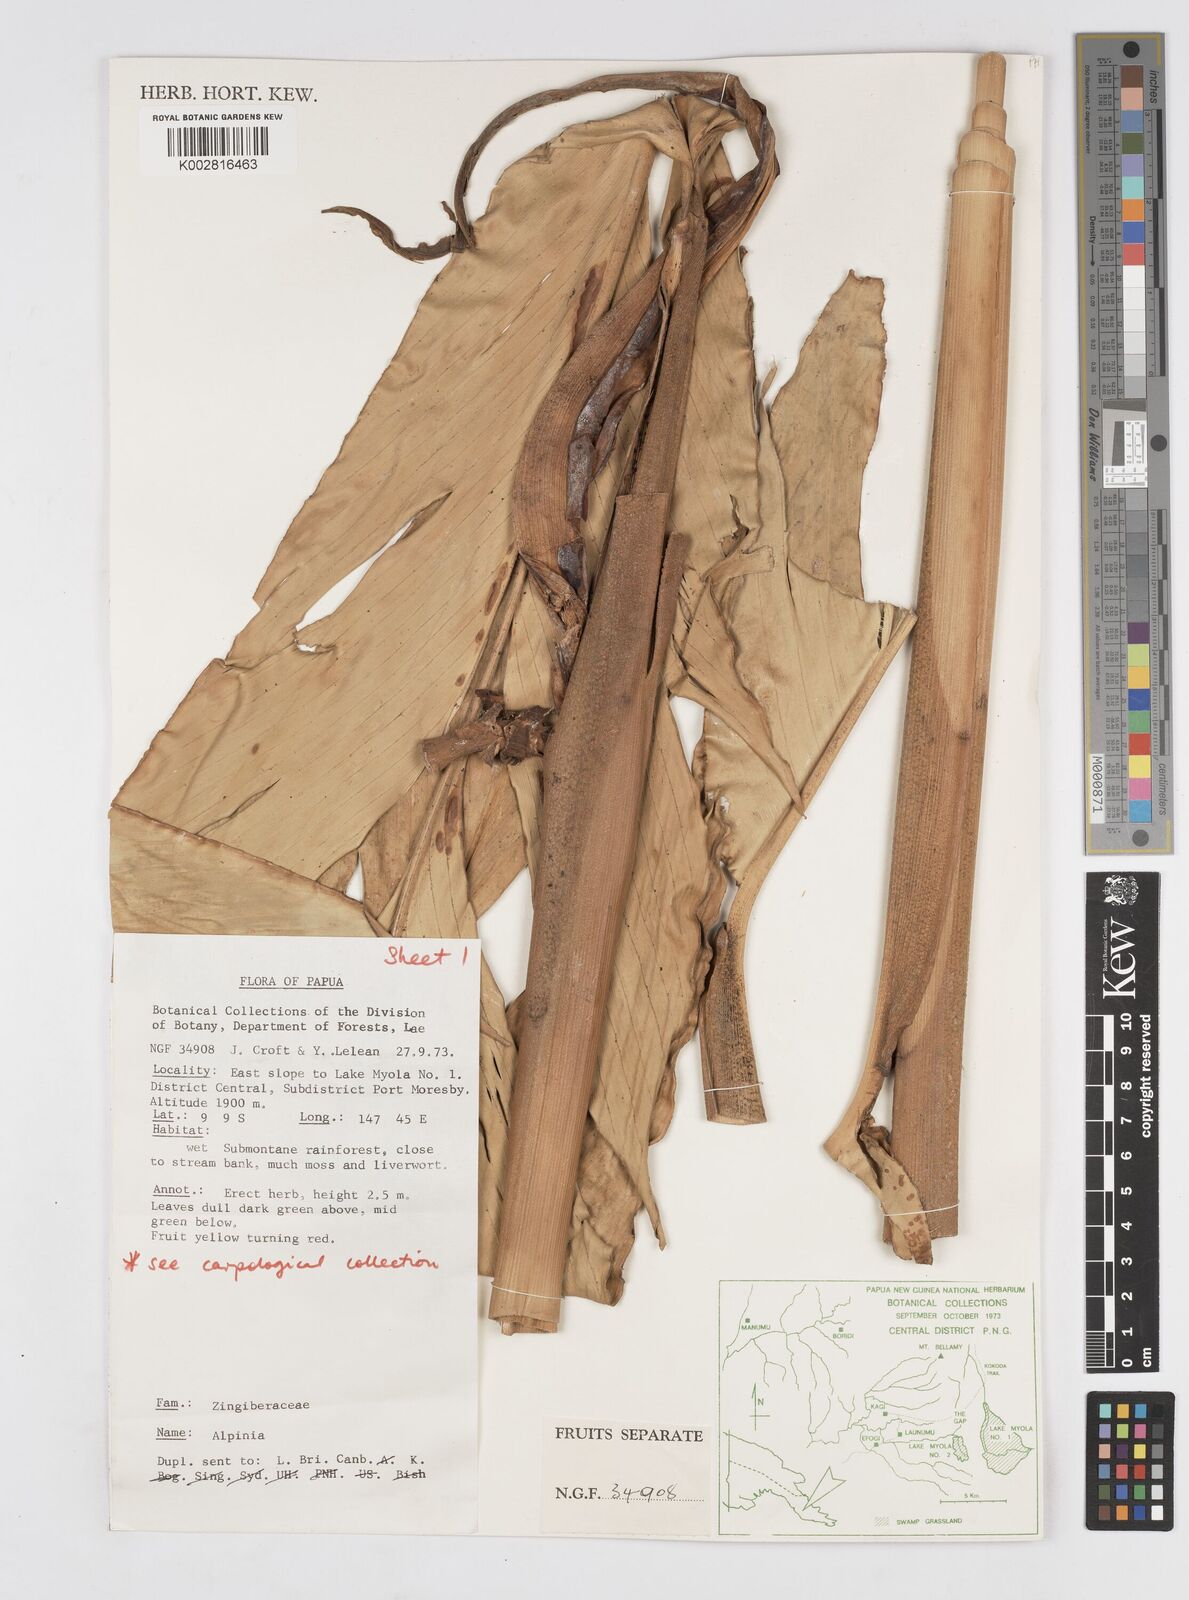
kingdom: Plantae
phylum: Tracheophyta
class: Liliopsida
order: Zingiberales
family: Zingiberaceae
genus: Alpinia
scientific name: Alpinia
